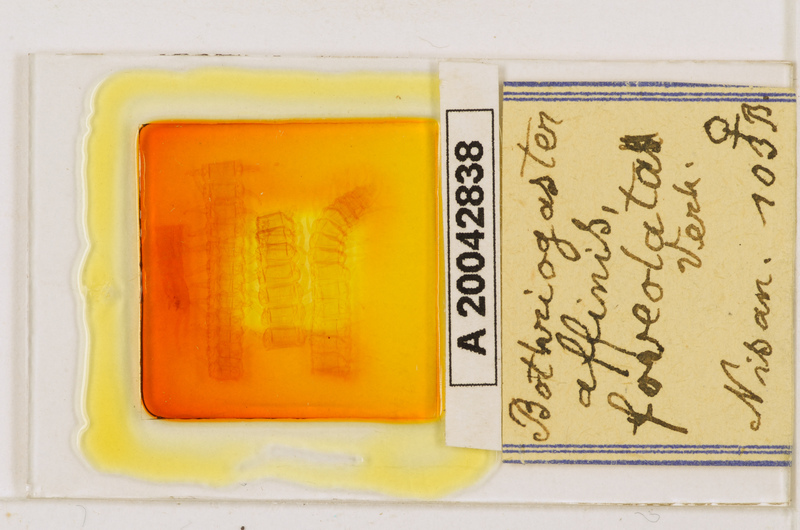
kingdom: Animalia
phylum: Arthropoda
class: Chilopoda
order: Geophilomorpha
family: Himantariidae
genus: Bothriogaster
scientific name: Bothriogaster signata
